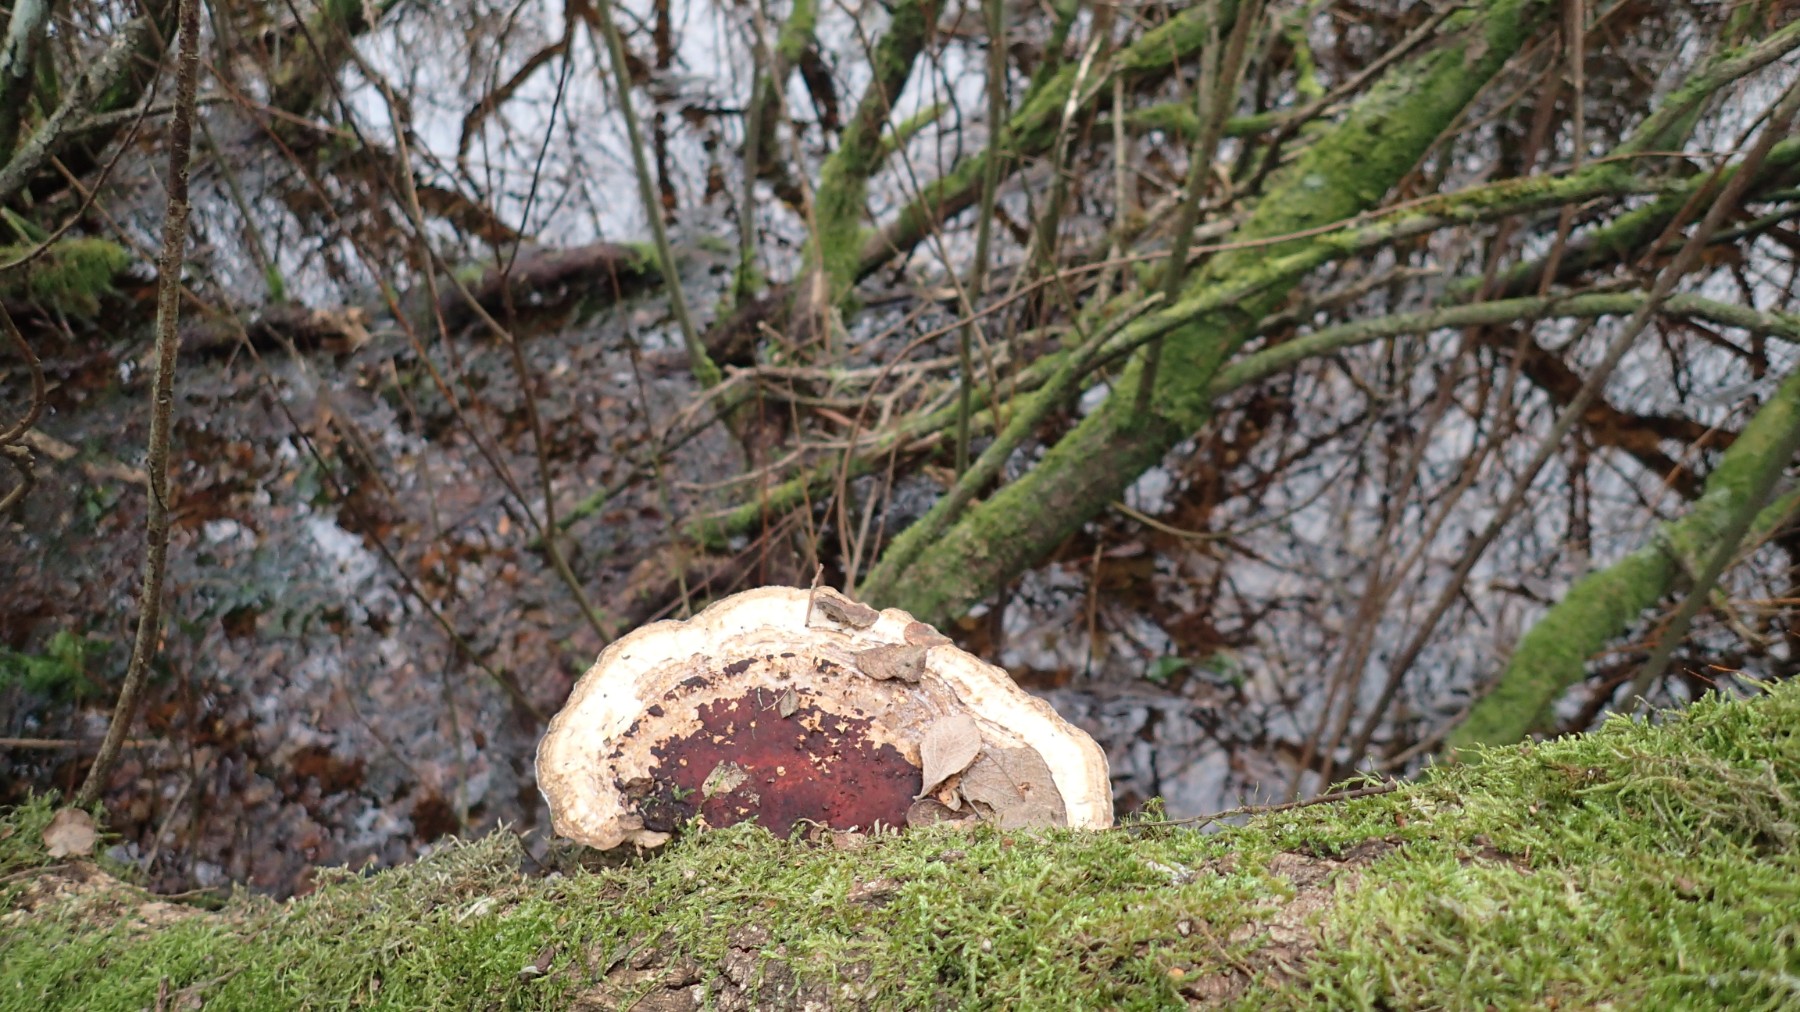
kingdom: Fungi
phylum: Basidiomycota
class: Agaricomycetes
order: Polyporales
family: Polyporaceae
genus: Daedaleopsis
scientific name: Daedaleopsis confragosa
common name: rødmende læderporesvamp
